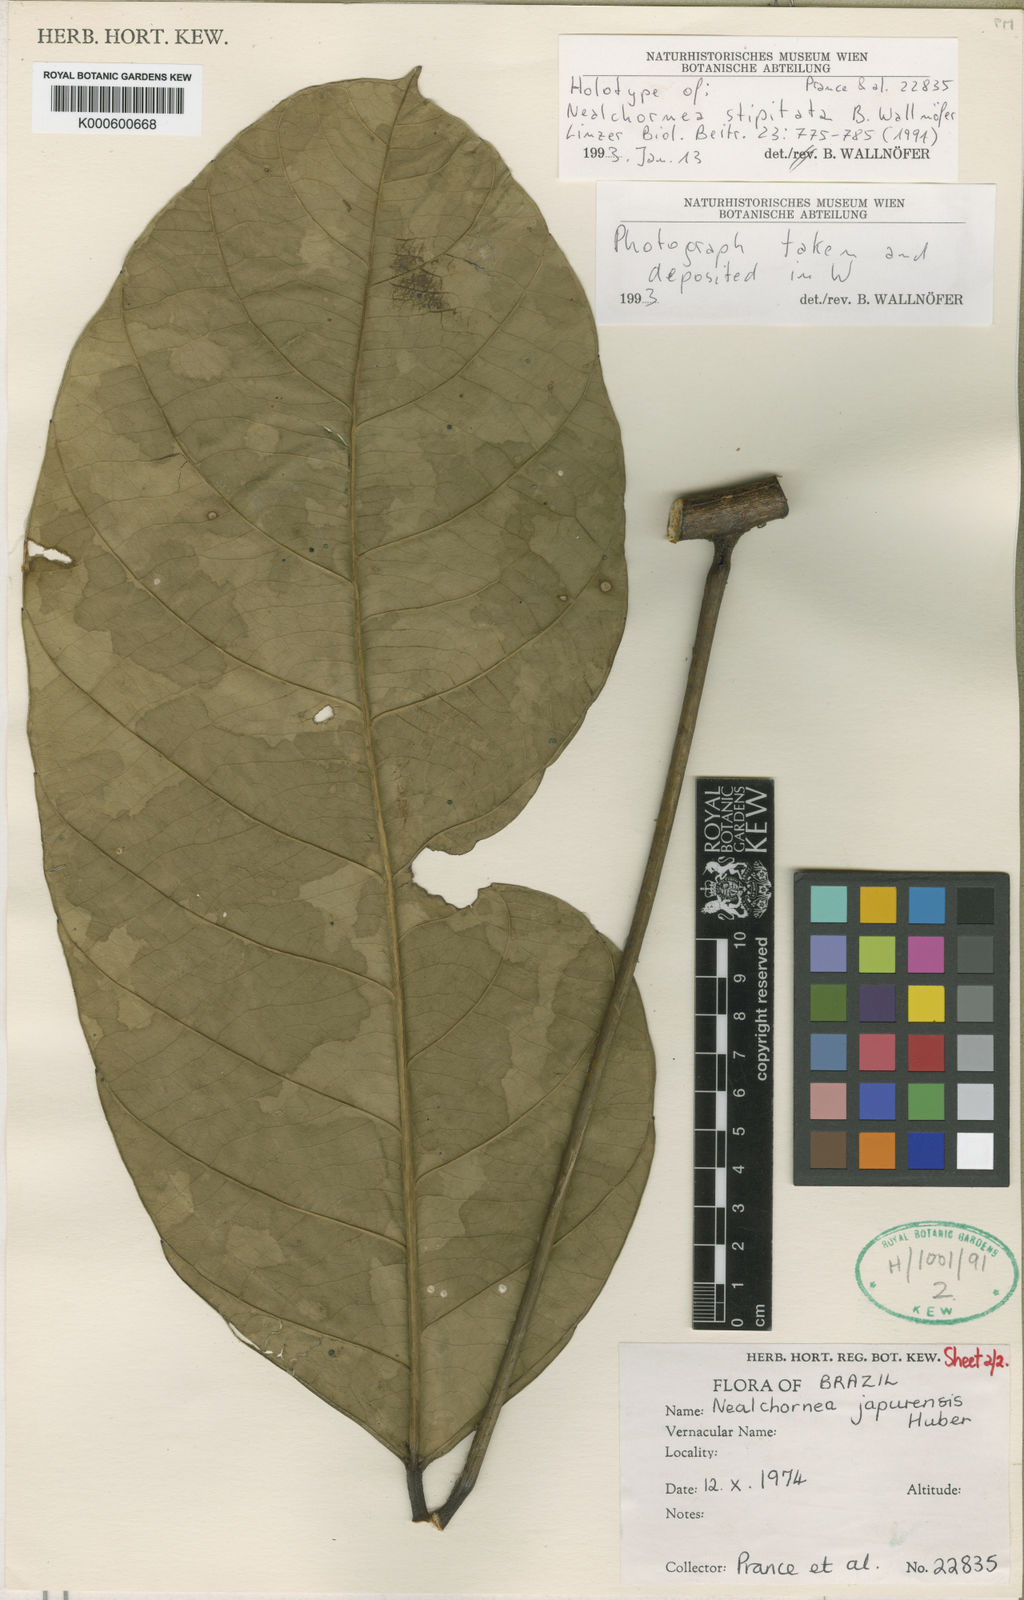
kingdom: Plantae
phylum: Tracheophyta
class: Magnoliopsida
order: Malpighiales
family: Euphorbiaceae
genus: Nealchornea
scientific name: Nealchornea stipitata
